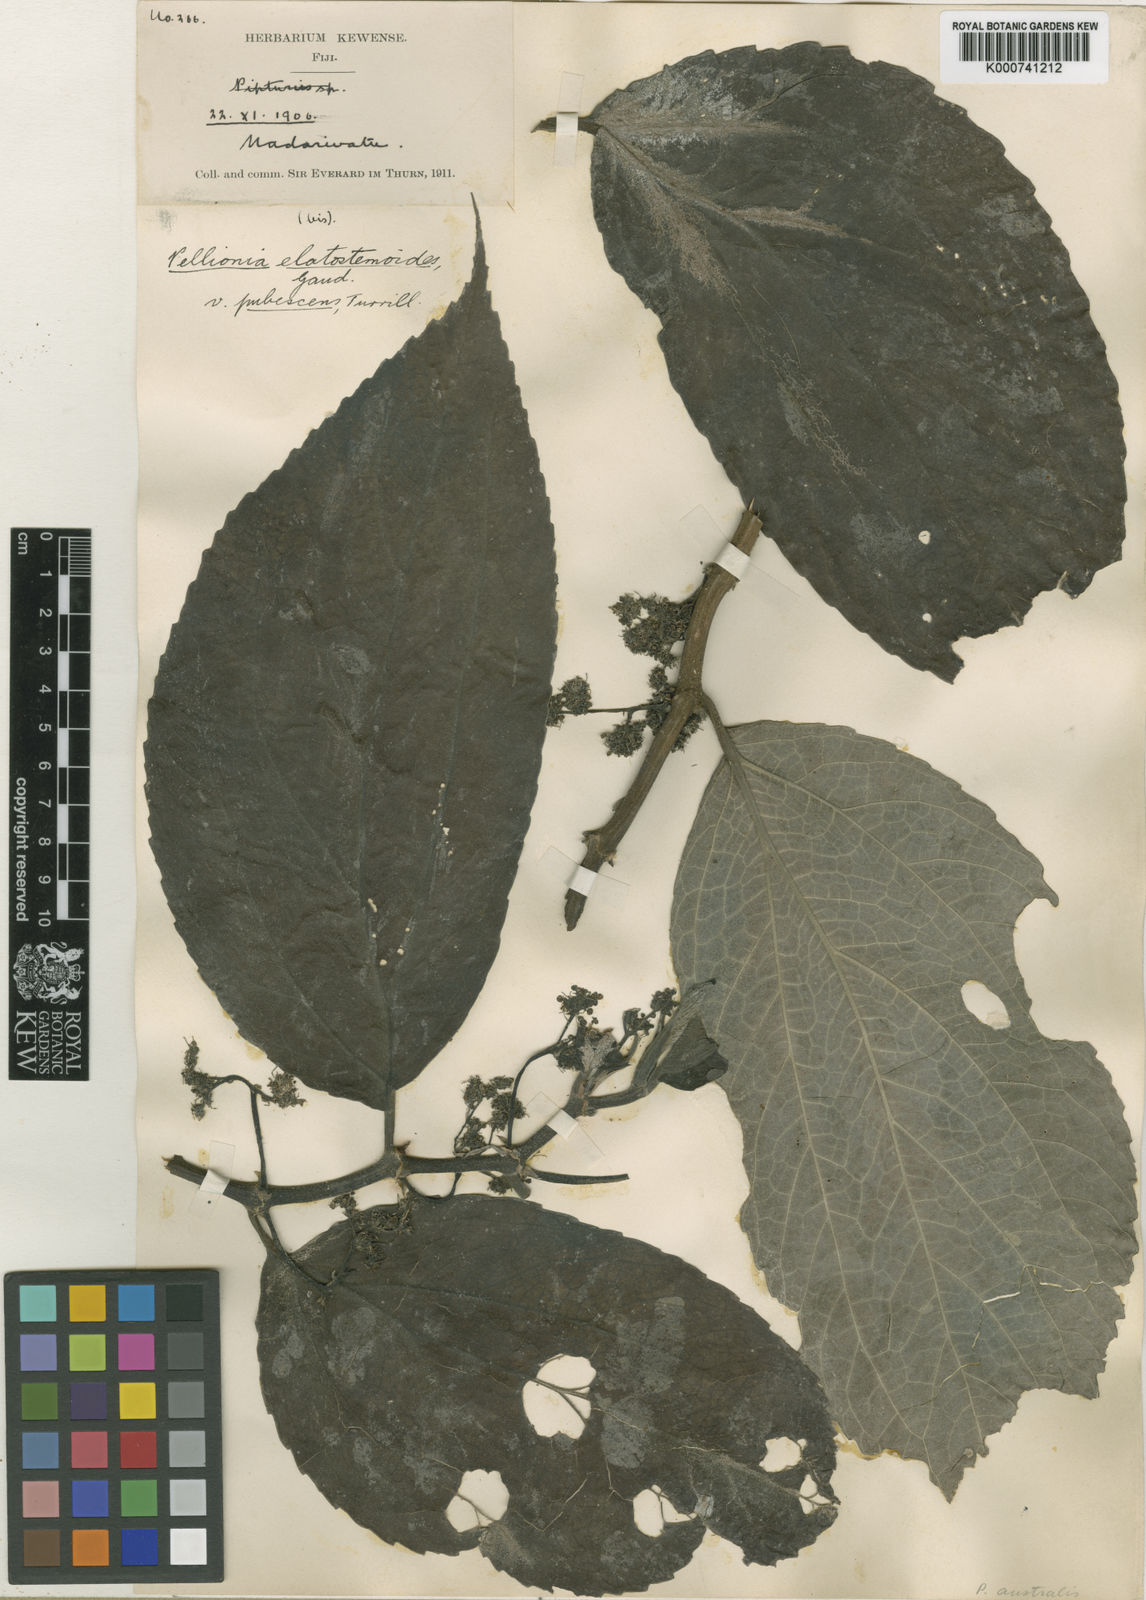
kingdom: Plantae
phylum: Tracheophyta
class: Magnoliopsida
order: Rosales
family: Urticaceae
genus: Elatostematoides
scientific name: Elatostematoides australe
